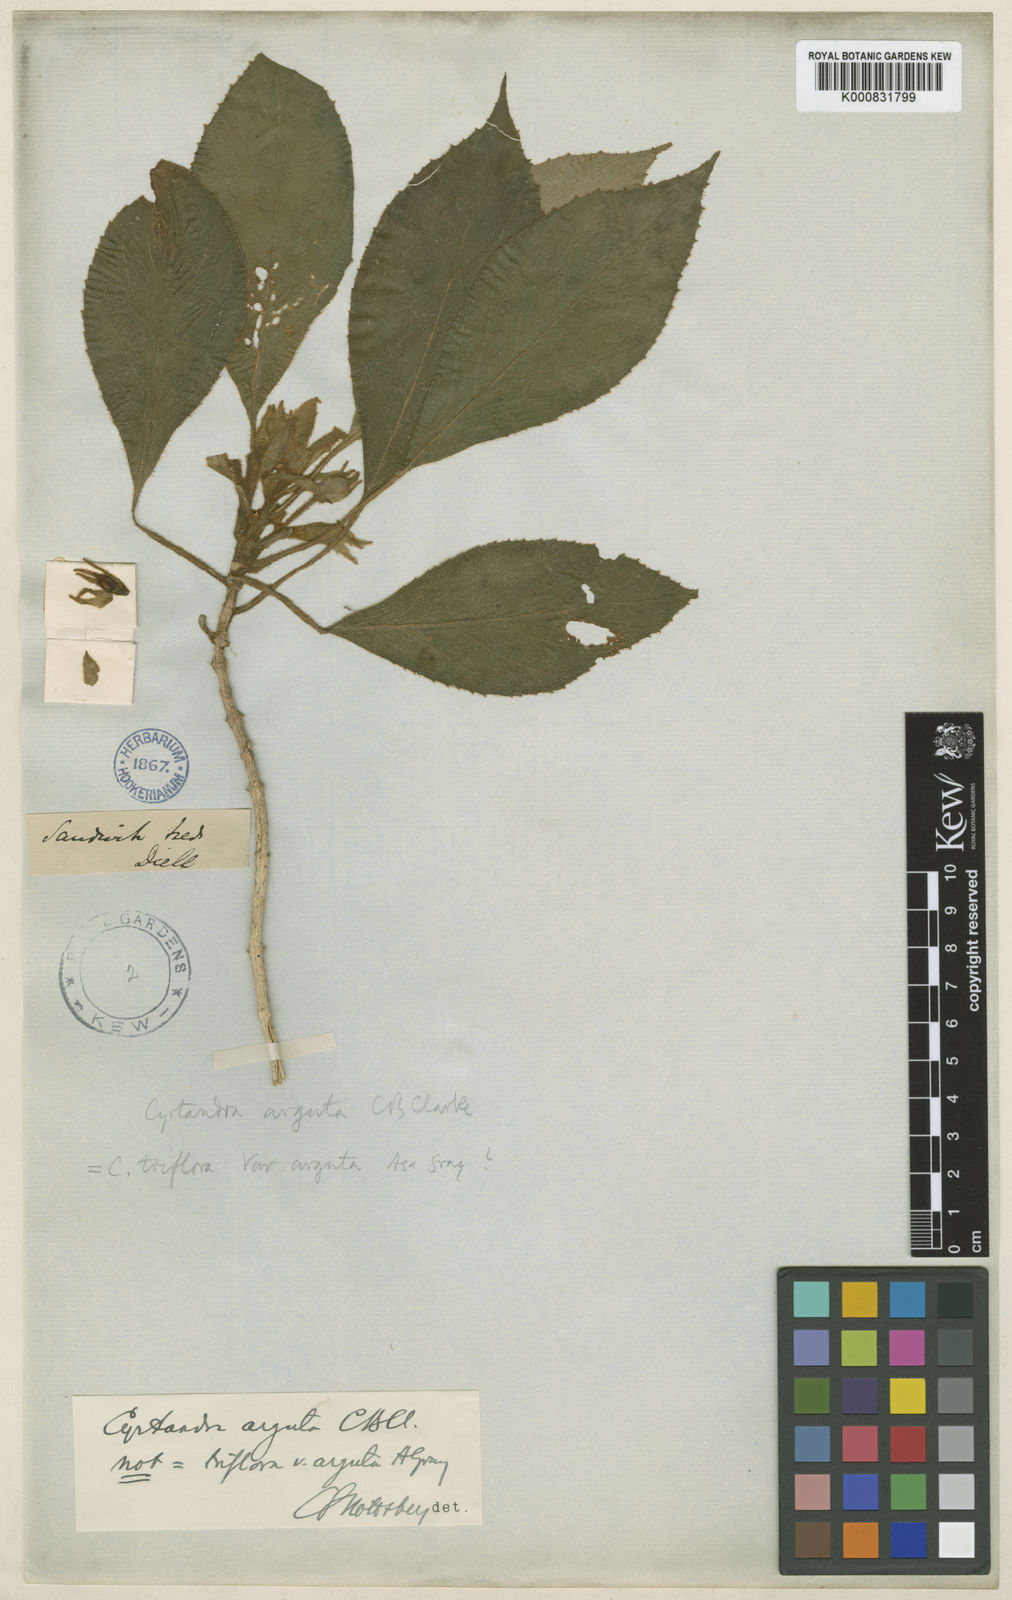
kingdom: Plantae
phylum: Tracheophyta
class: Magnoliopsida
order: Lamiales
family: Gesneriaceae
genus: Cyrtandra
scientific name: Cyrtandra arguta
